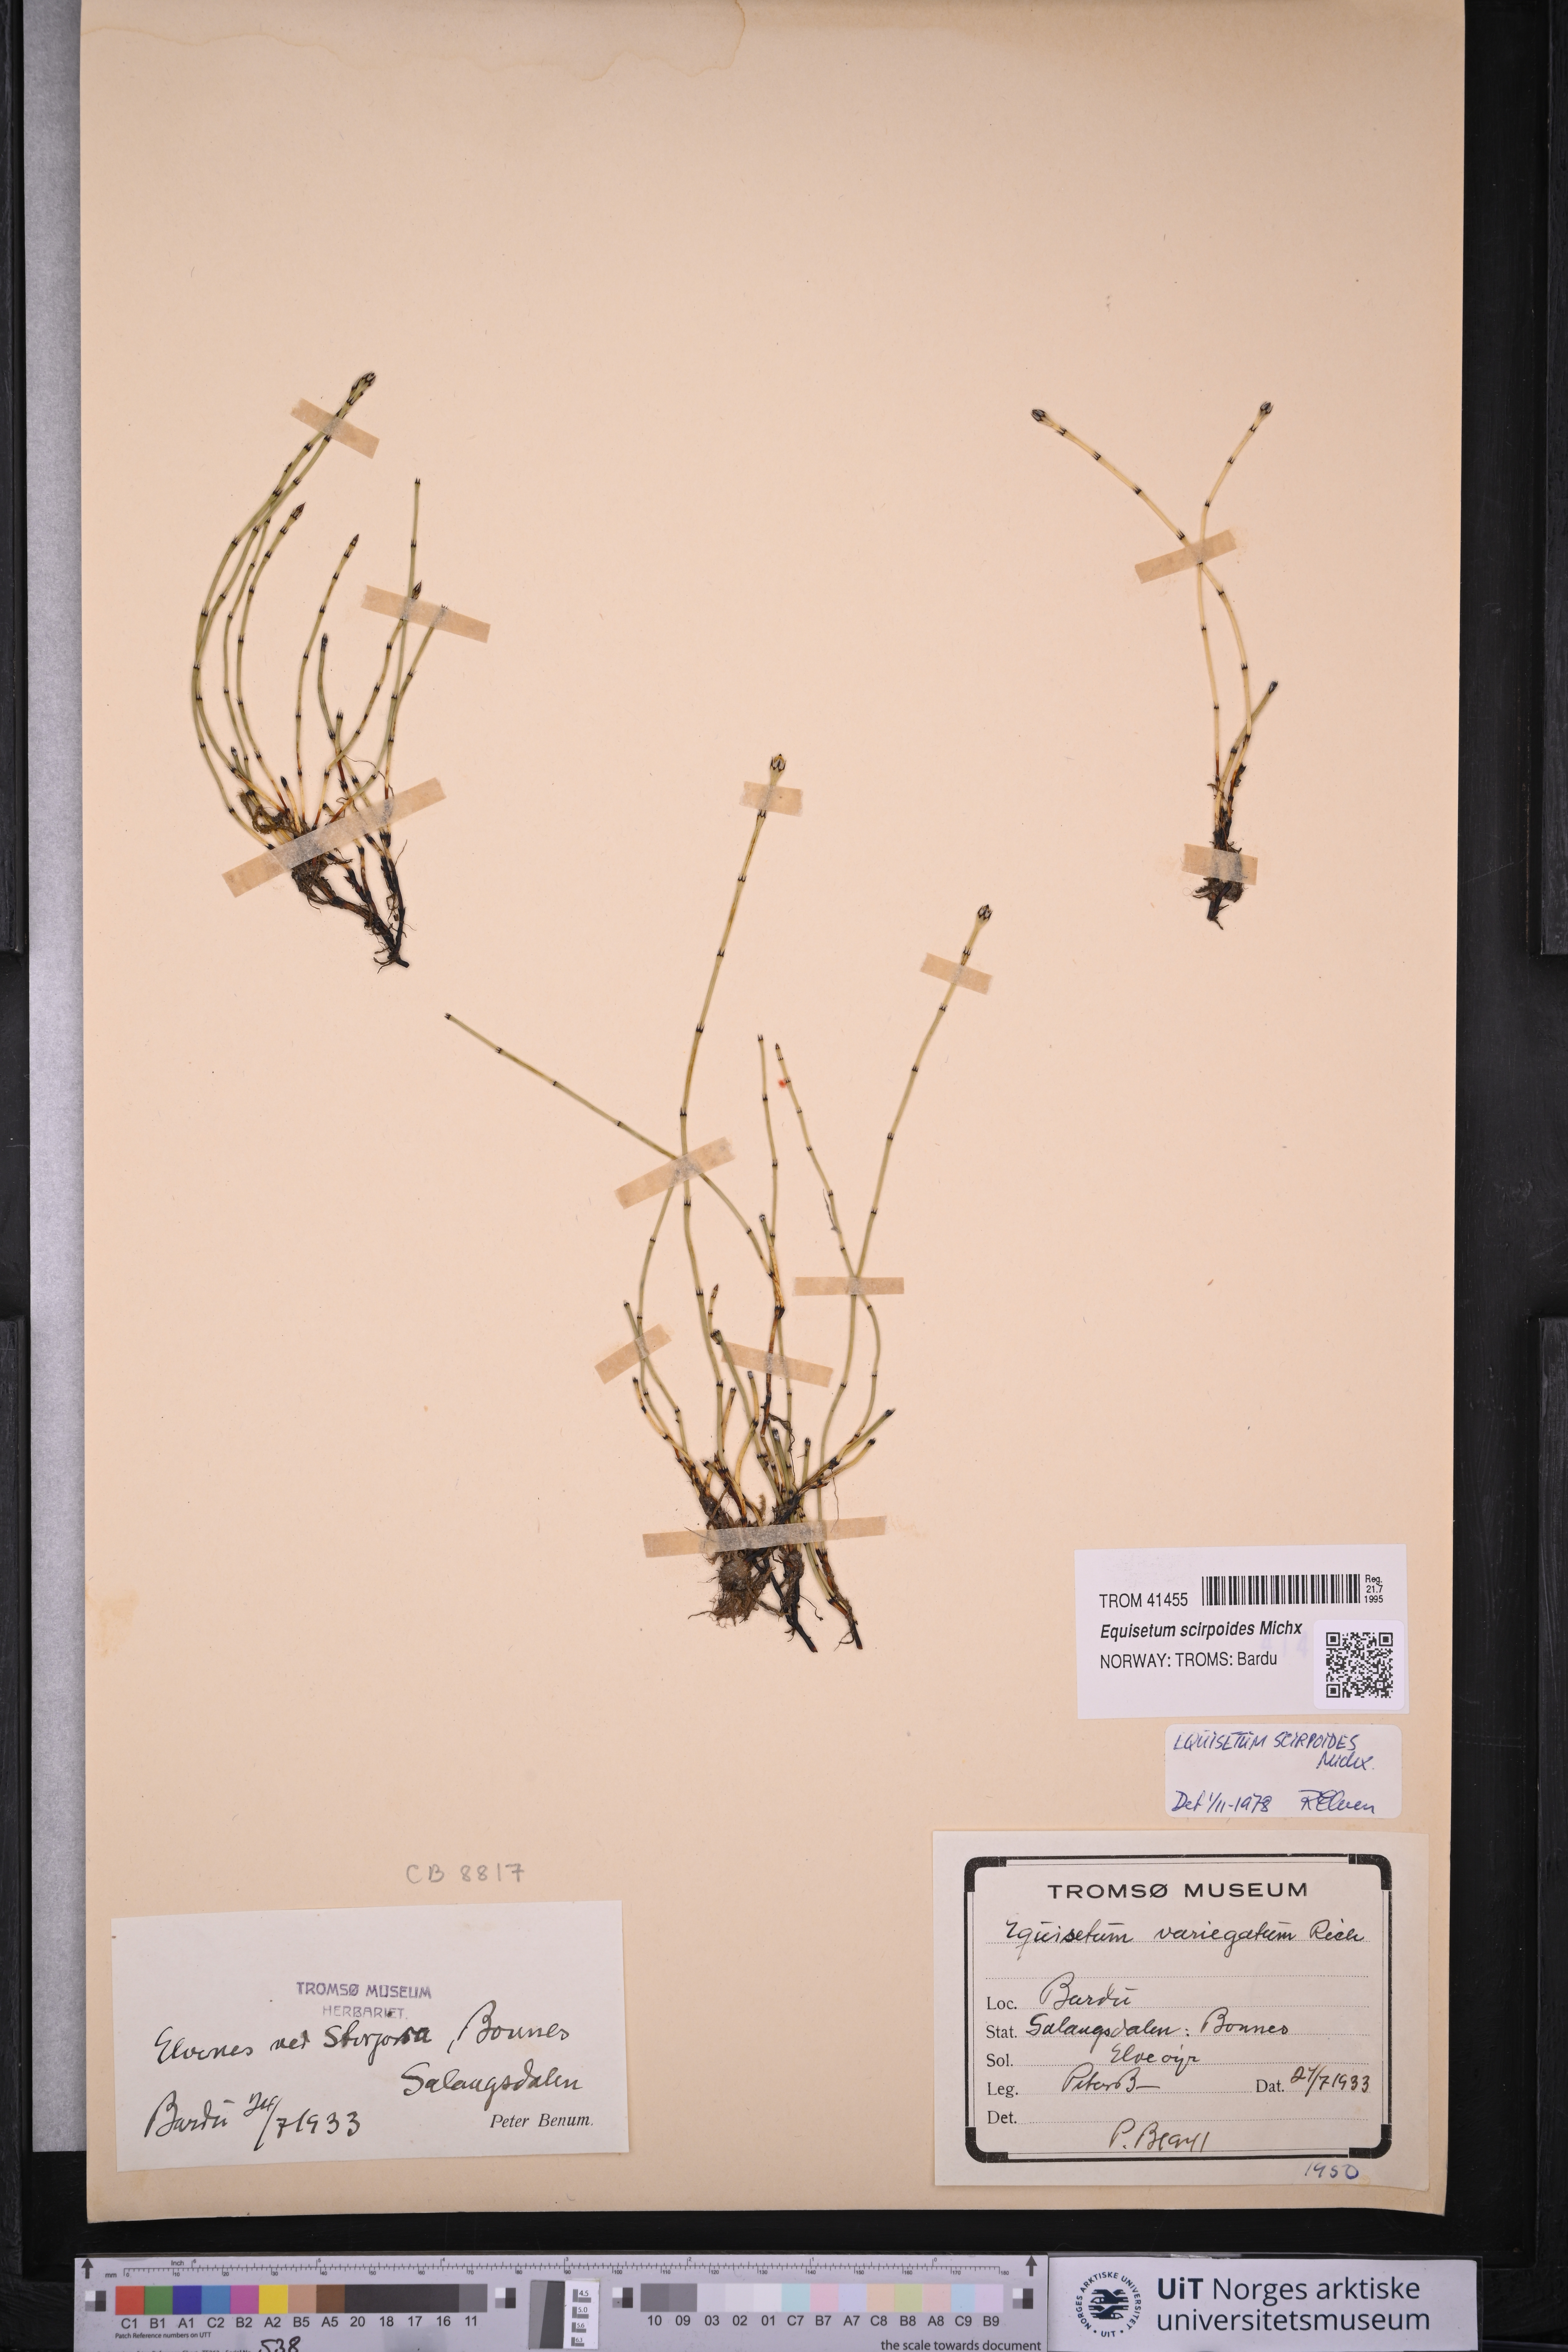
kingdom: Plantae
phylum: Tracheophyta
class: Polypodiopsida
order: Equisetales
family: Equisetaceae
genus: Equisetum
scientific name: Equisetum scirpoides
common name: Delicate horsetail
